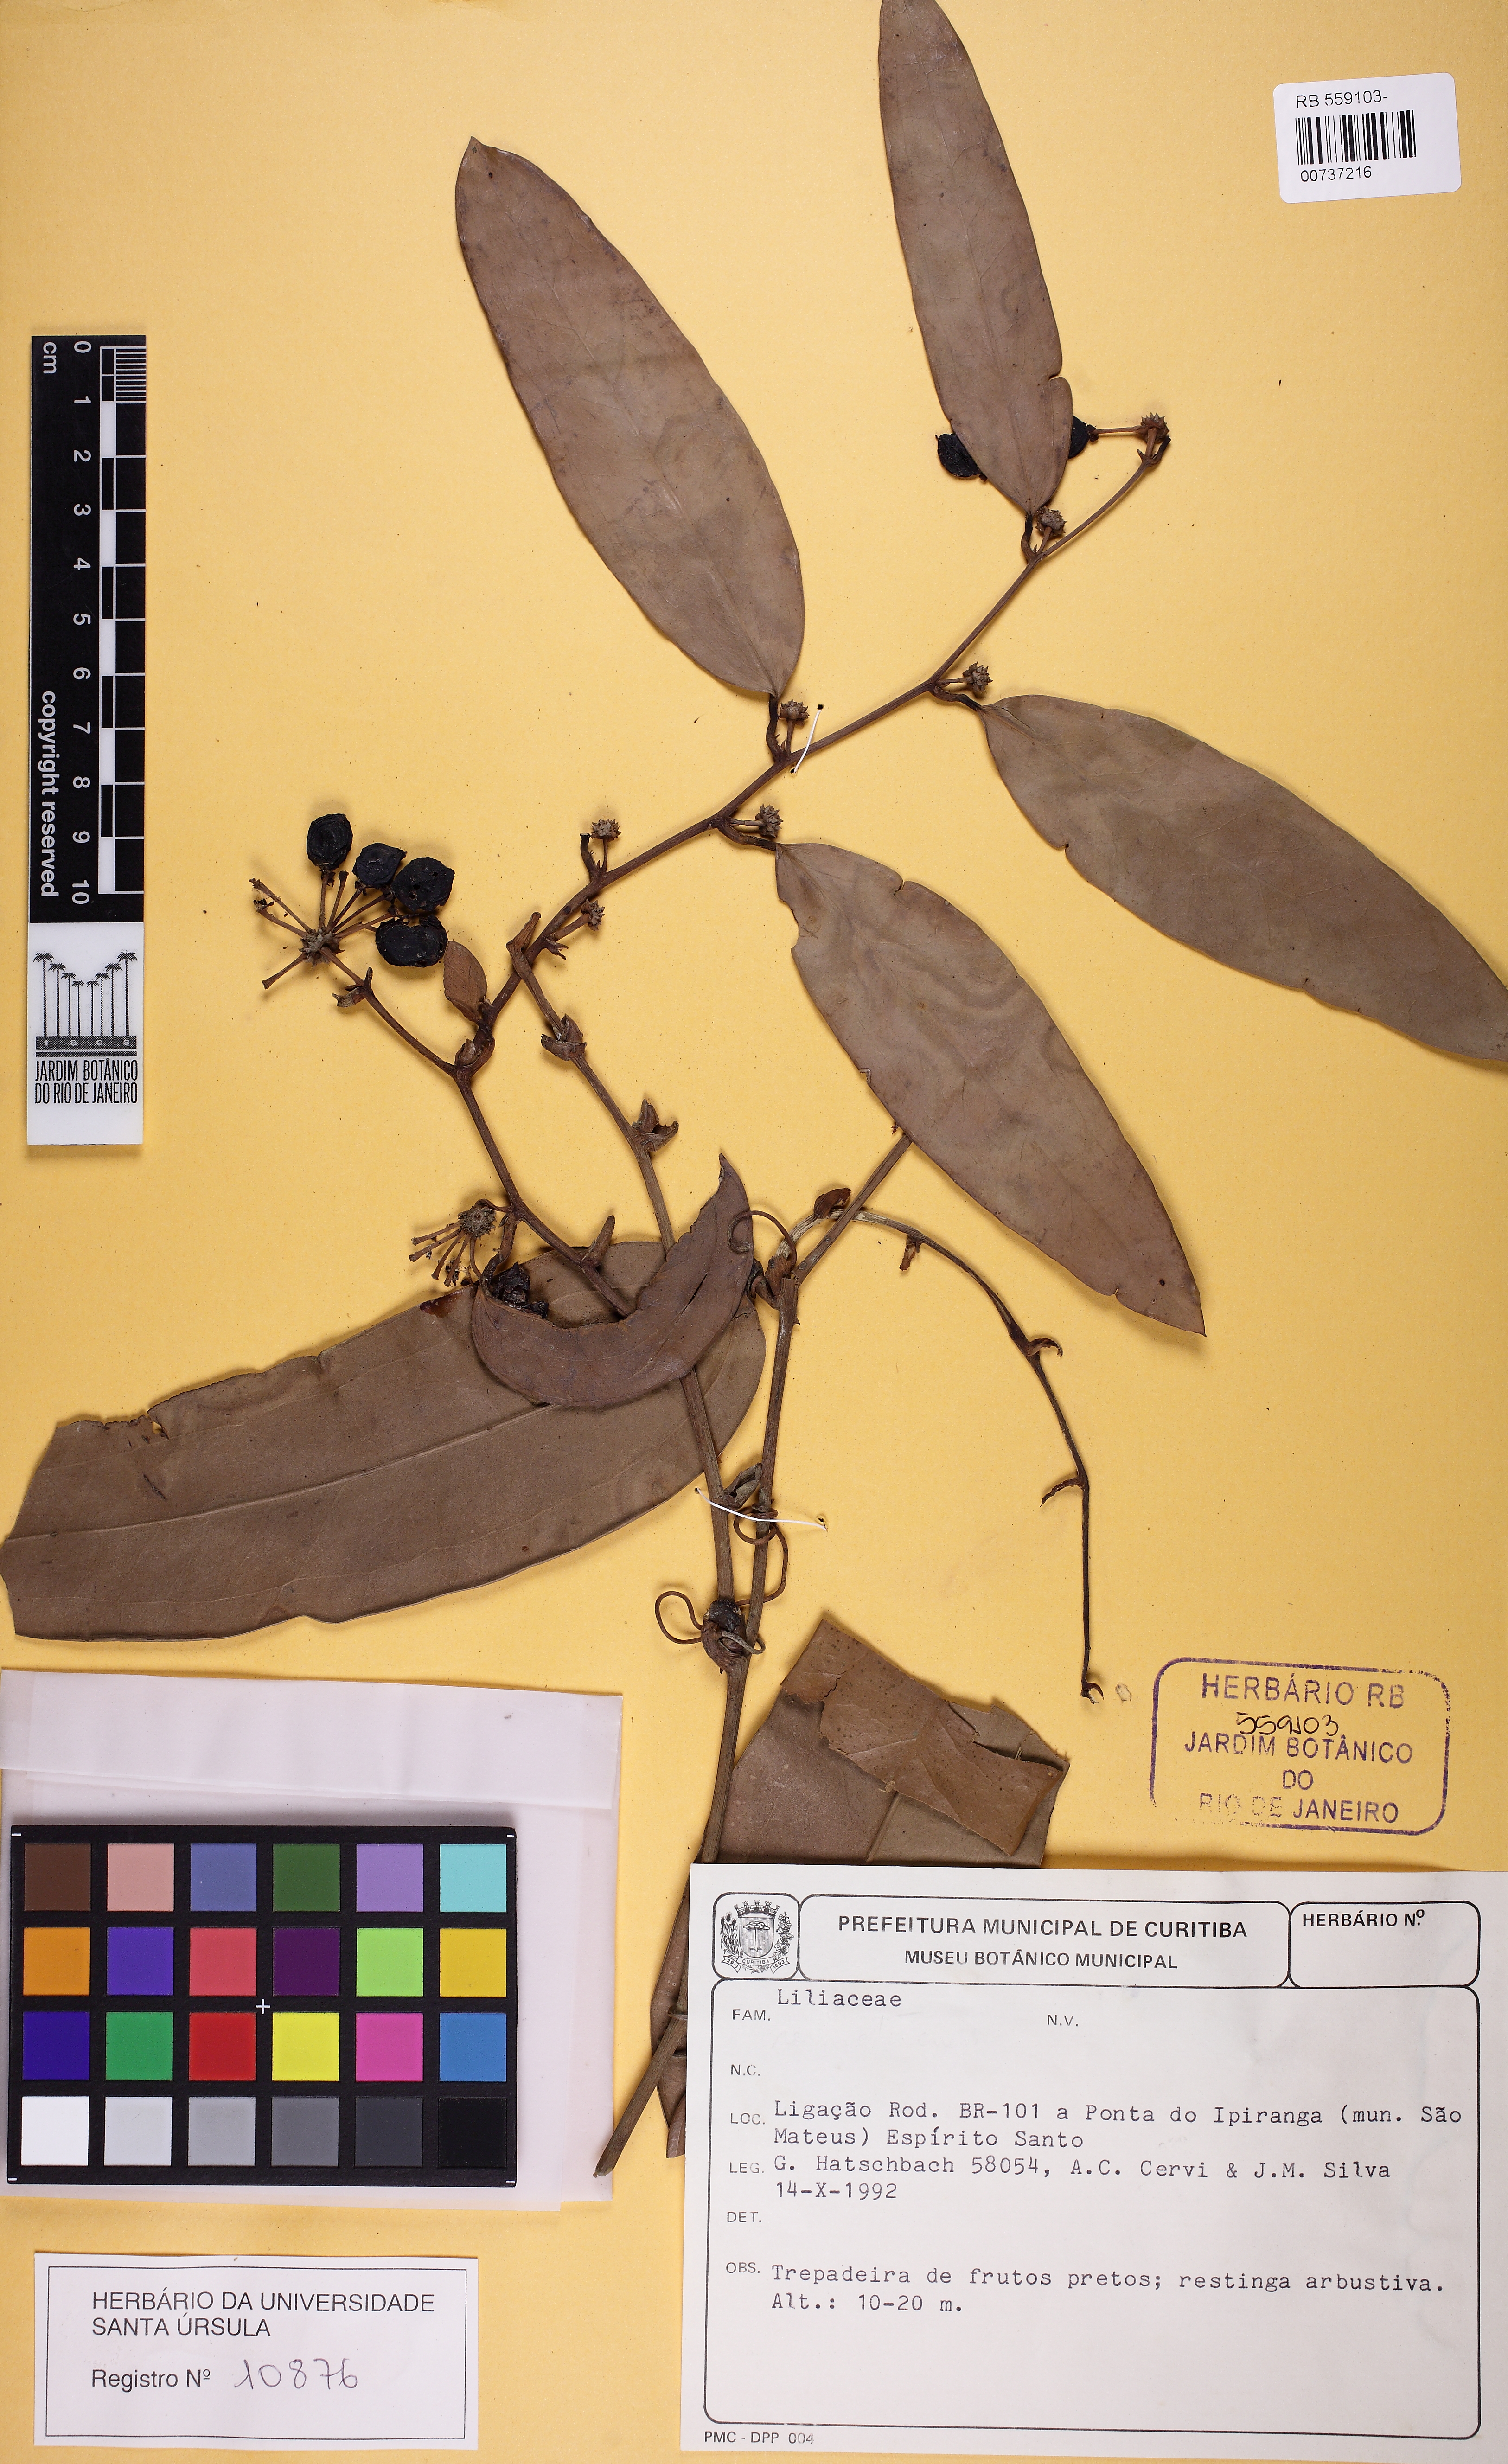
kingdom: Plantae
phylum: Tracheophyta
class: Liliopsida
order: Liliales
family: Smilacaceae
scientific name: Smilacaceae
